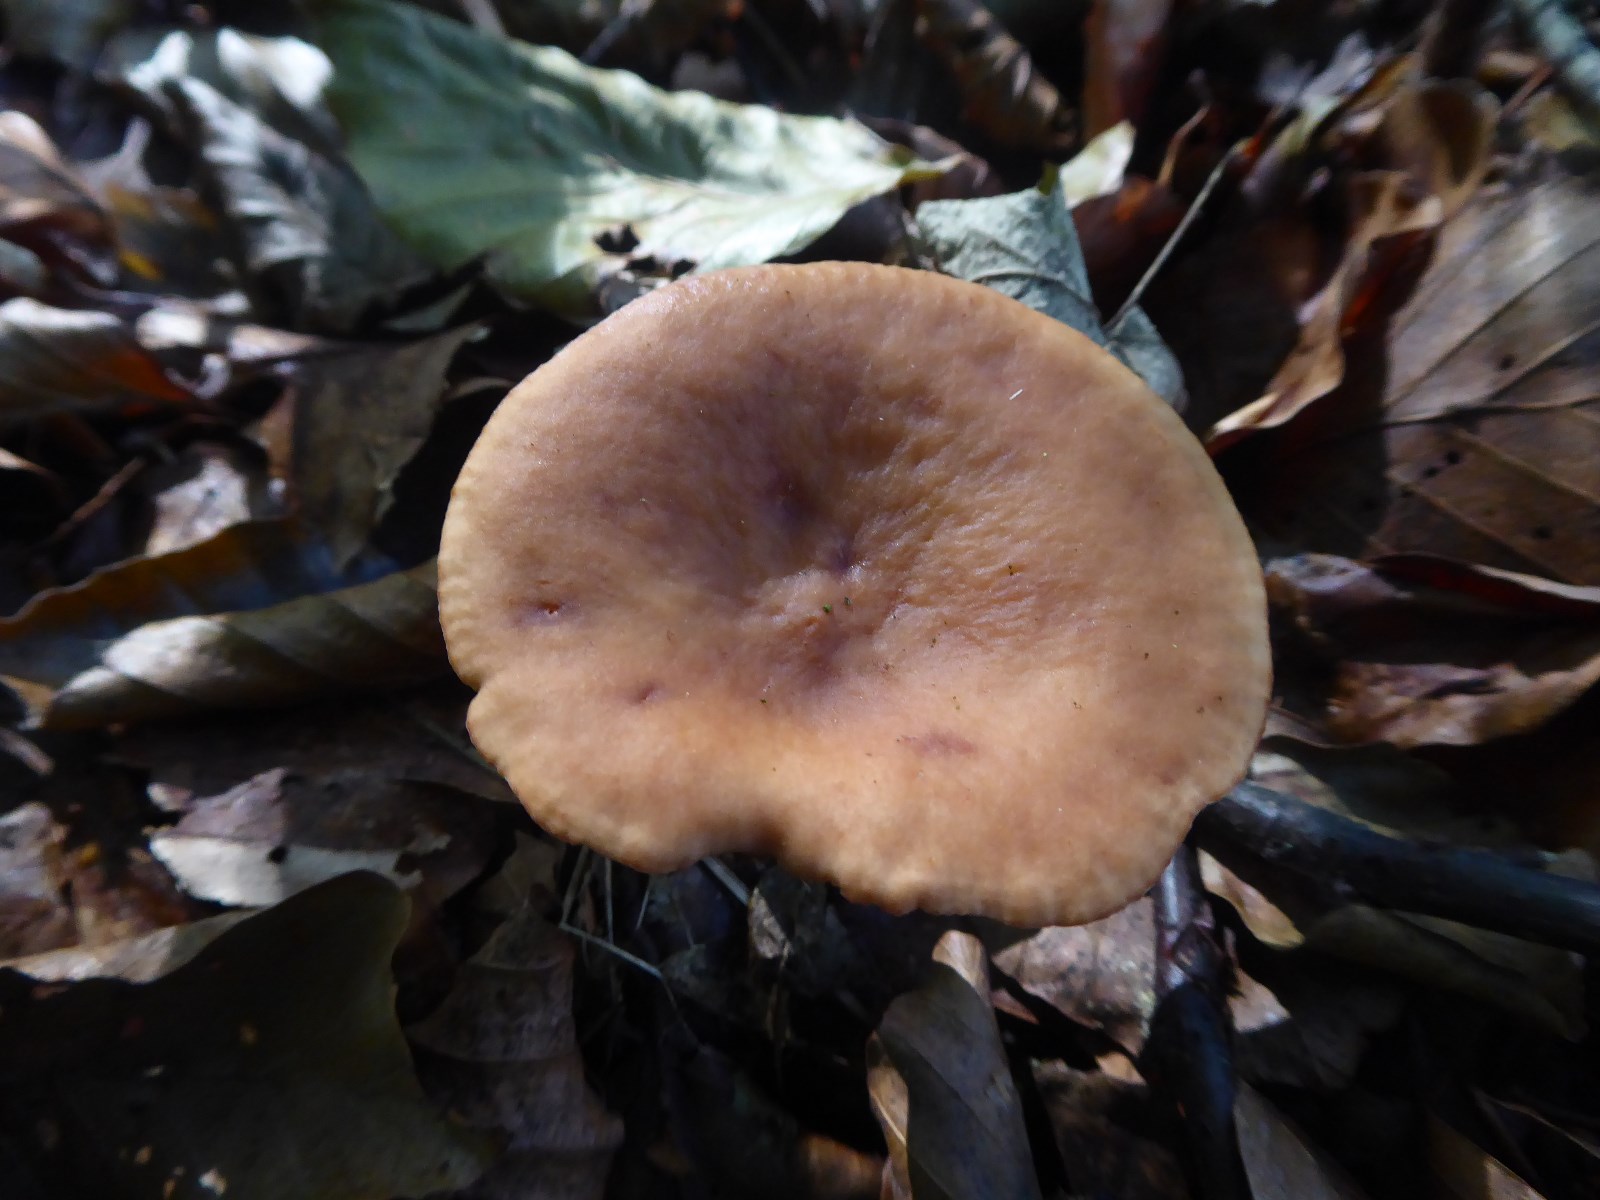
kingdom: Fungi
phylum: Basidiomycota
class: Agaricomycetes
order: Russulales
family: Russulaceae
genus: Lactarius
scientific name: Lactarius subdulcis
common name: sødlig mælkehat
